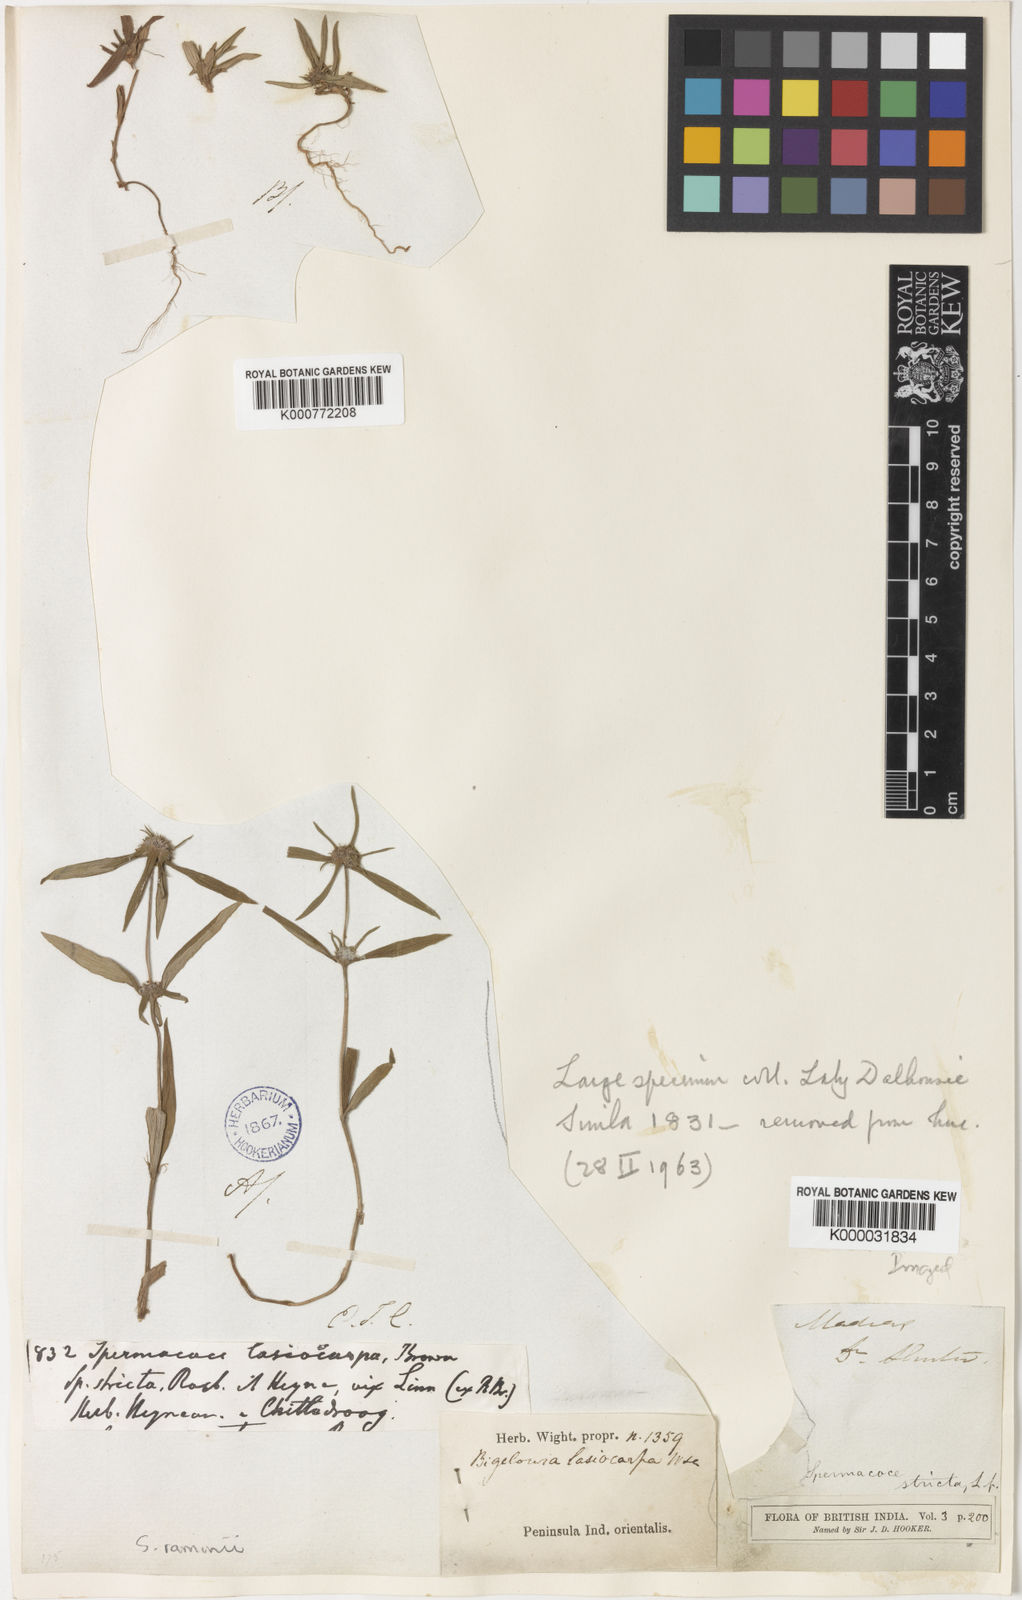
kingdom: Plantae
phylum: Tracheophyta
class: Magnoliopsida
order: Gentianales
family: Rubiaceae
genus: Spermacoce
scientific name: Spermacoce lasiocarpa
